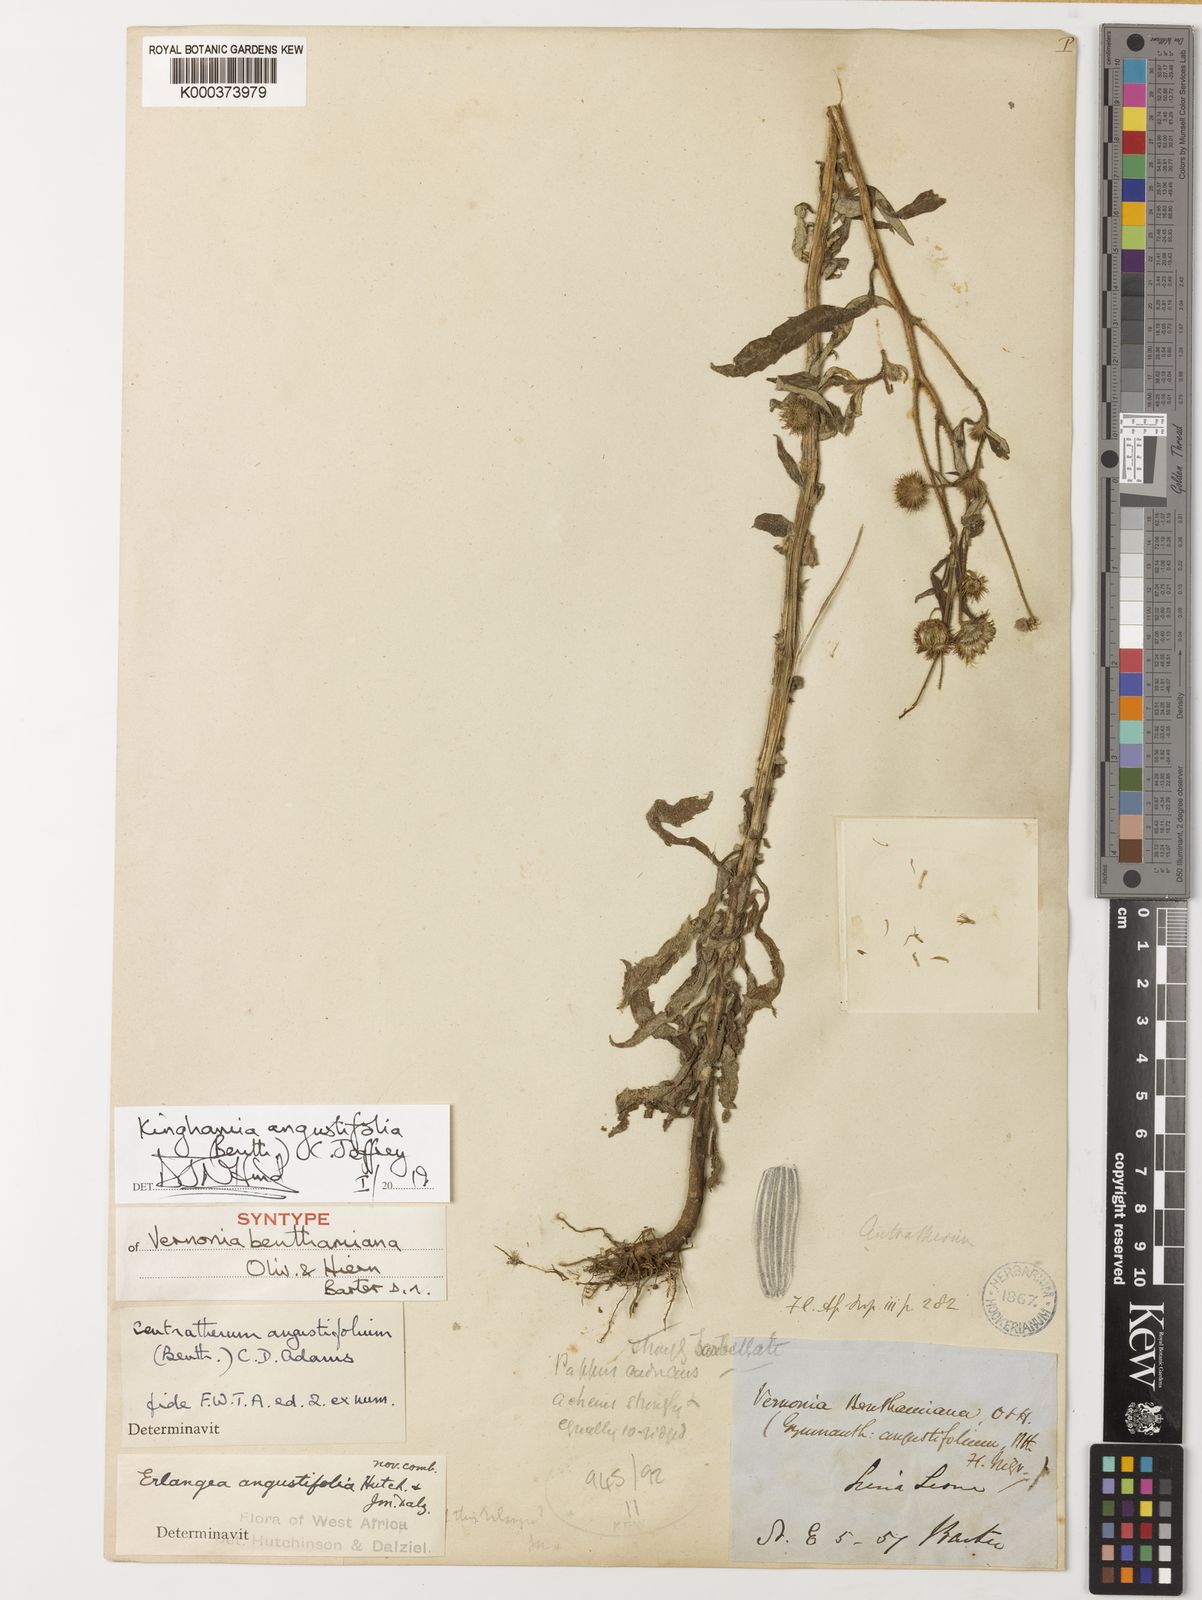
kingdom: Plantae
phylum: Tracheophyta
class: Magnoliopsida
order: Asterales
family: Asteraceae
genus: Kinghamia
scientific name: Kinghamia angustifolia
